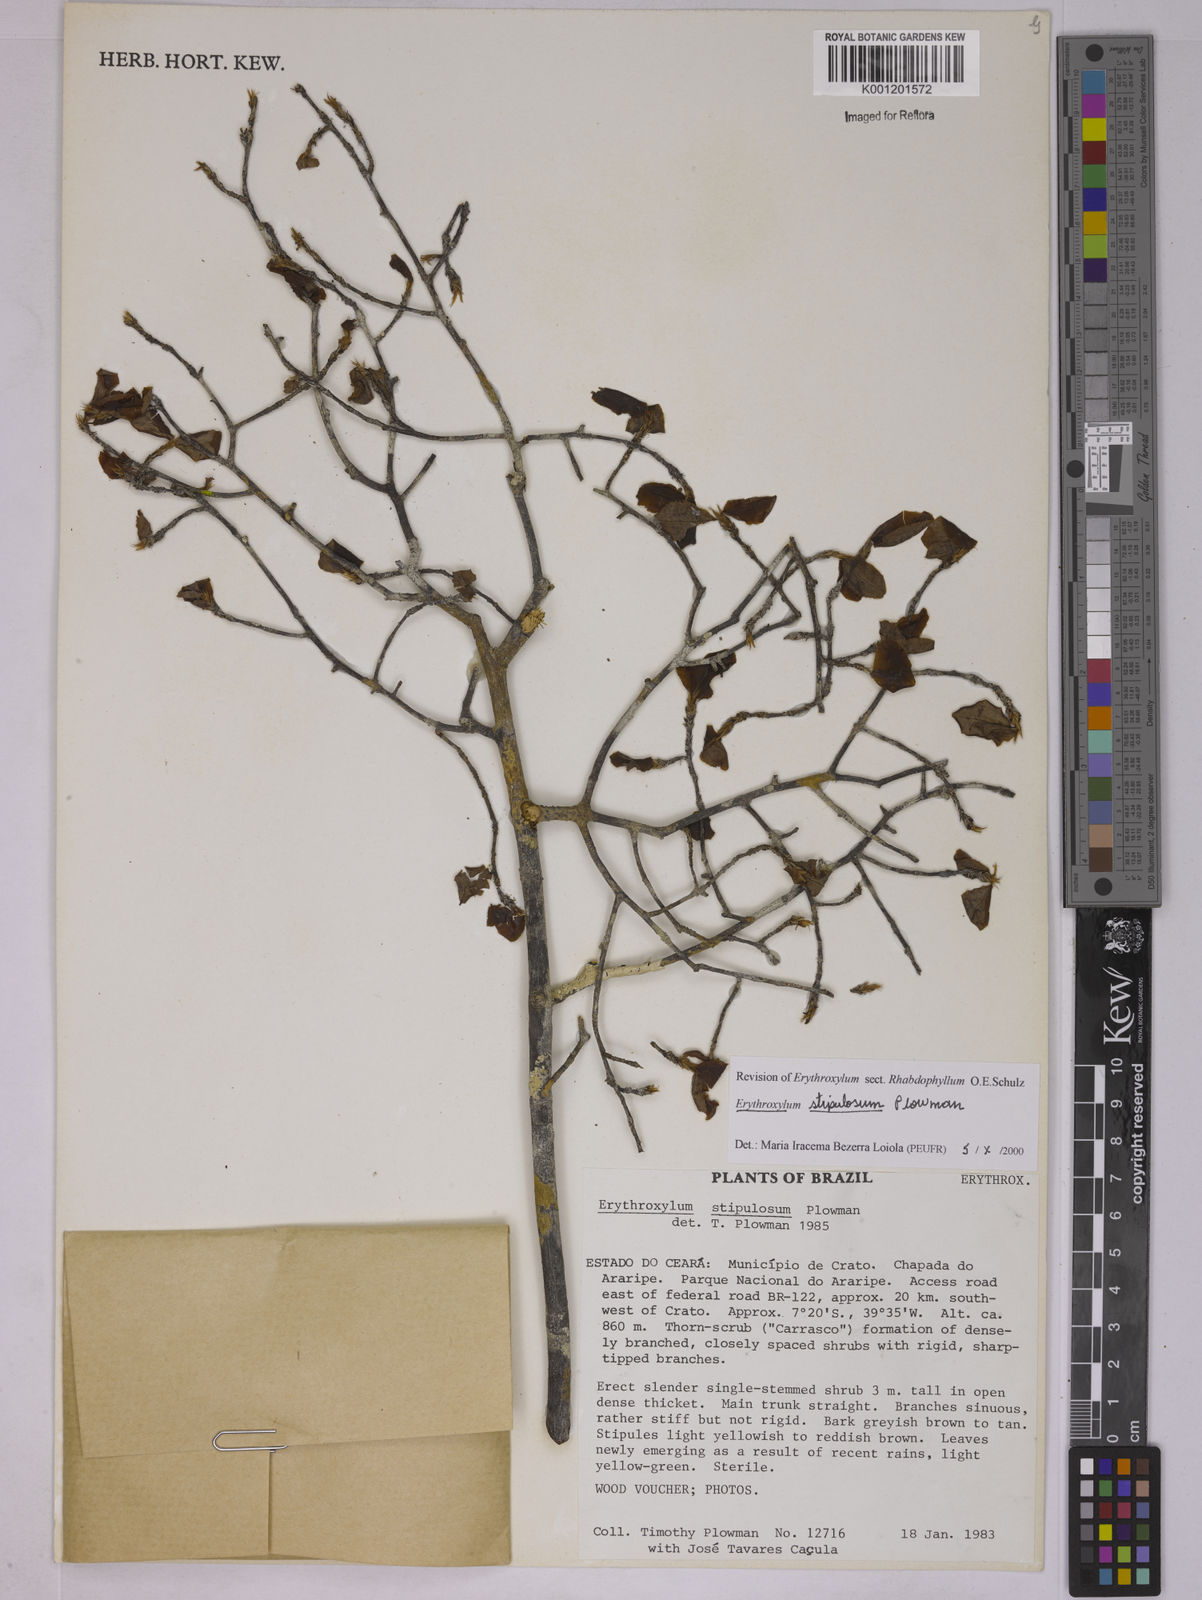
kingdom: Plantae
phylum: Tracheophyta
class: Magnoliopsida
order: Malpighiales
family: Erythroxylaceae
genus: Erythroxylum
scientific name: Erythroxylum stipulosum
